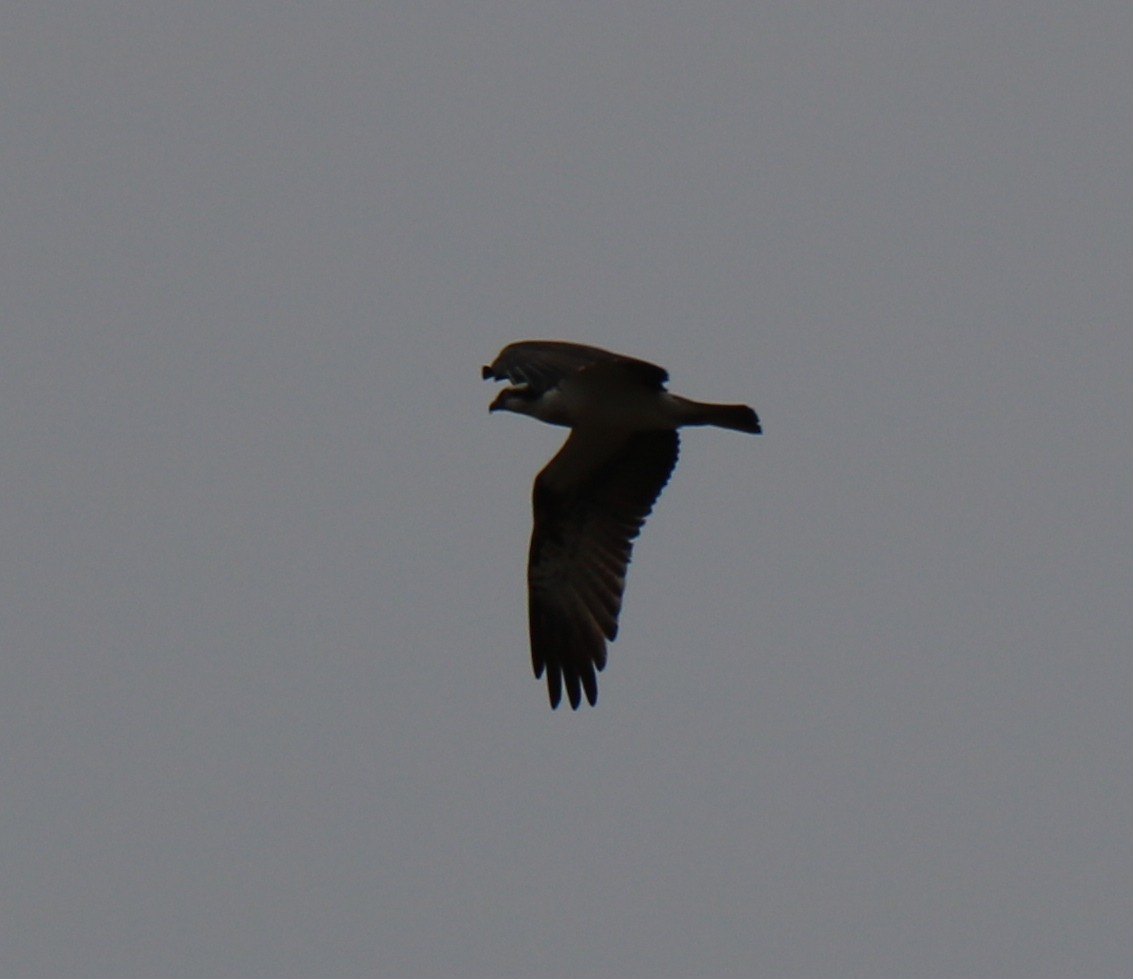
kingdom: Animalia
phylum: Chordata
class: Aves
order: Accipitriformes
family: Pandionidae
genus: Pandion
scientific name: Pandion haliaetus
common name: Fiskeørn
